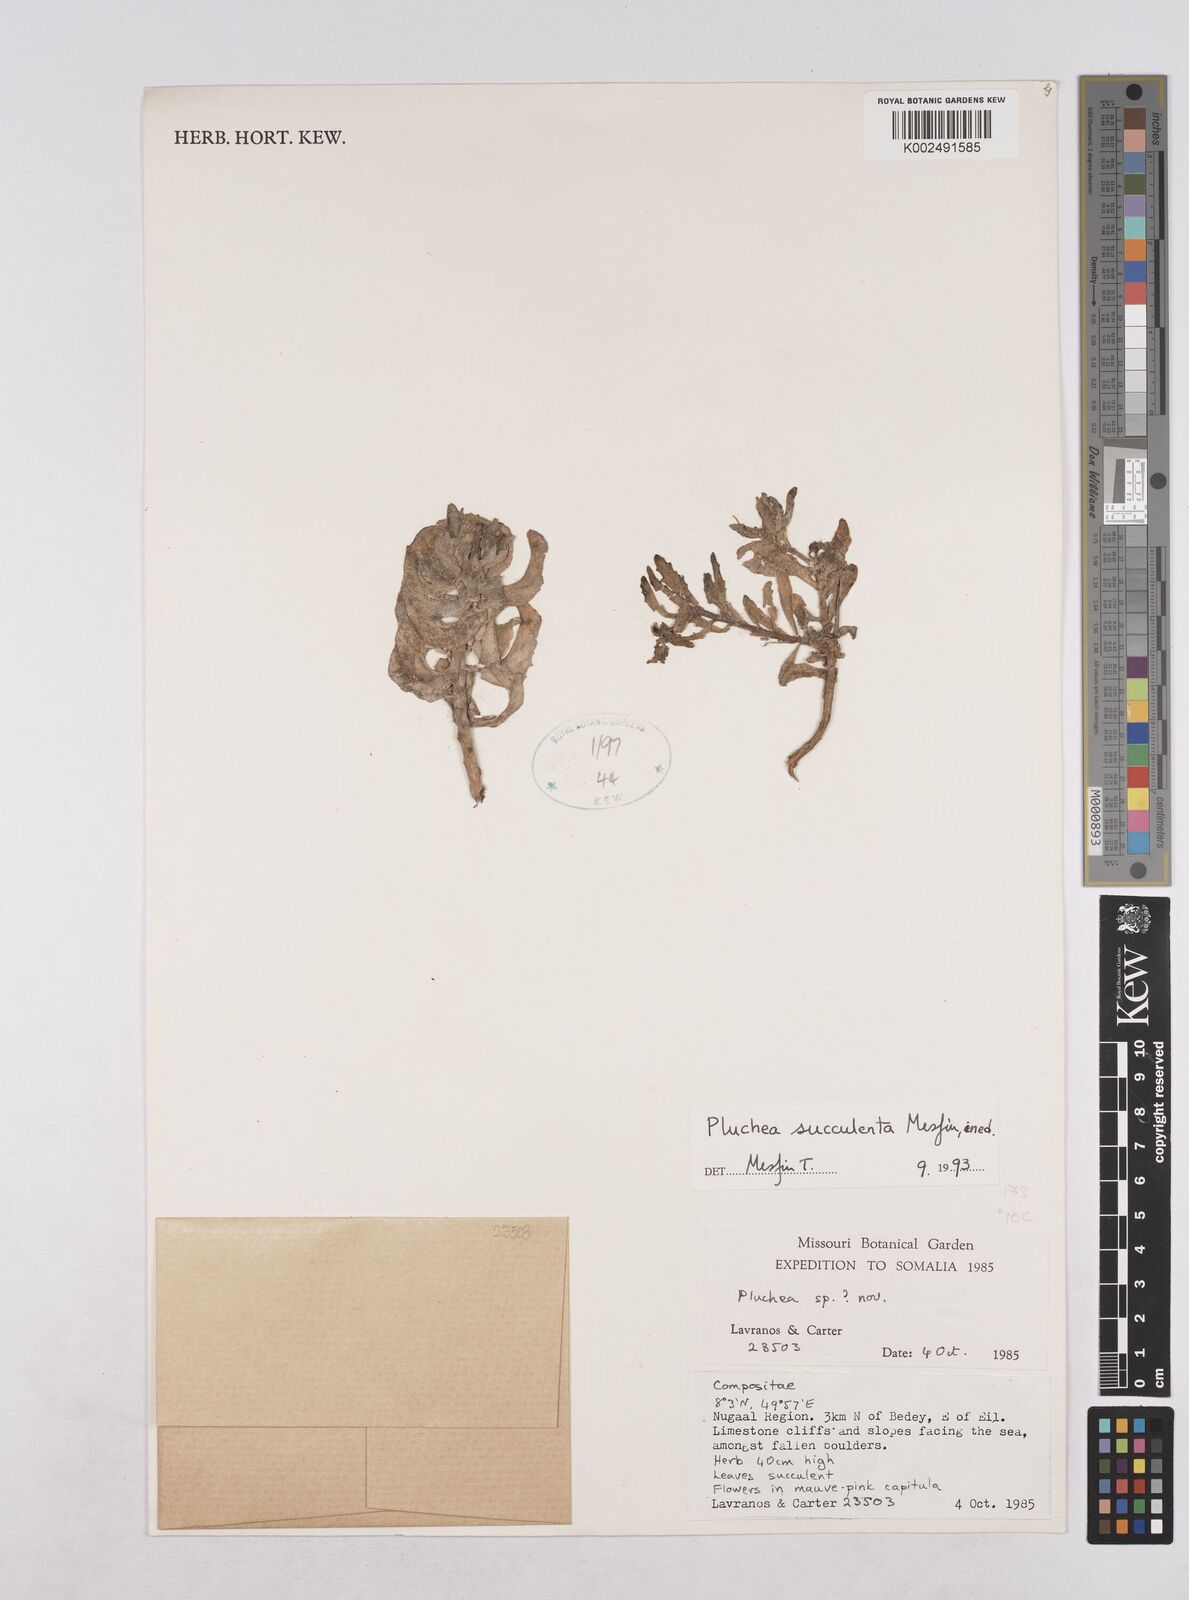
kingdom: Plantae
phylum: Tracheophyta
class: Magnoliopsida
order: Asterales
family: Asteraceae
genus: Pluchea
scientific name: Pluchea succulenta
